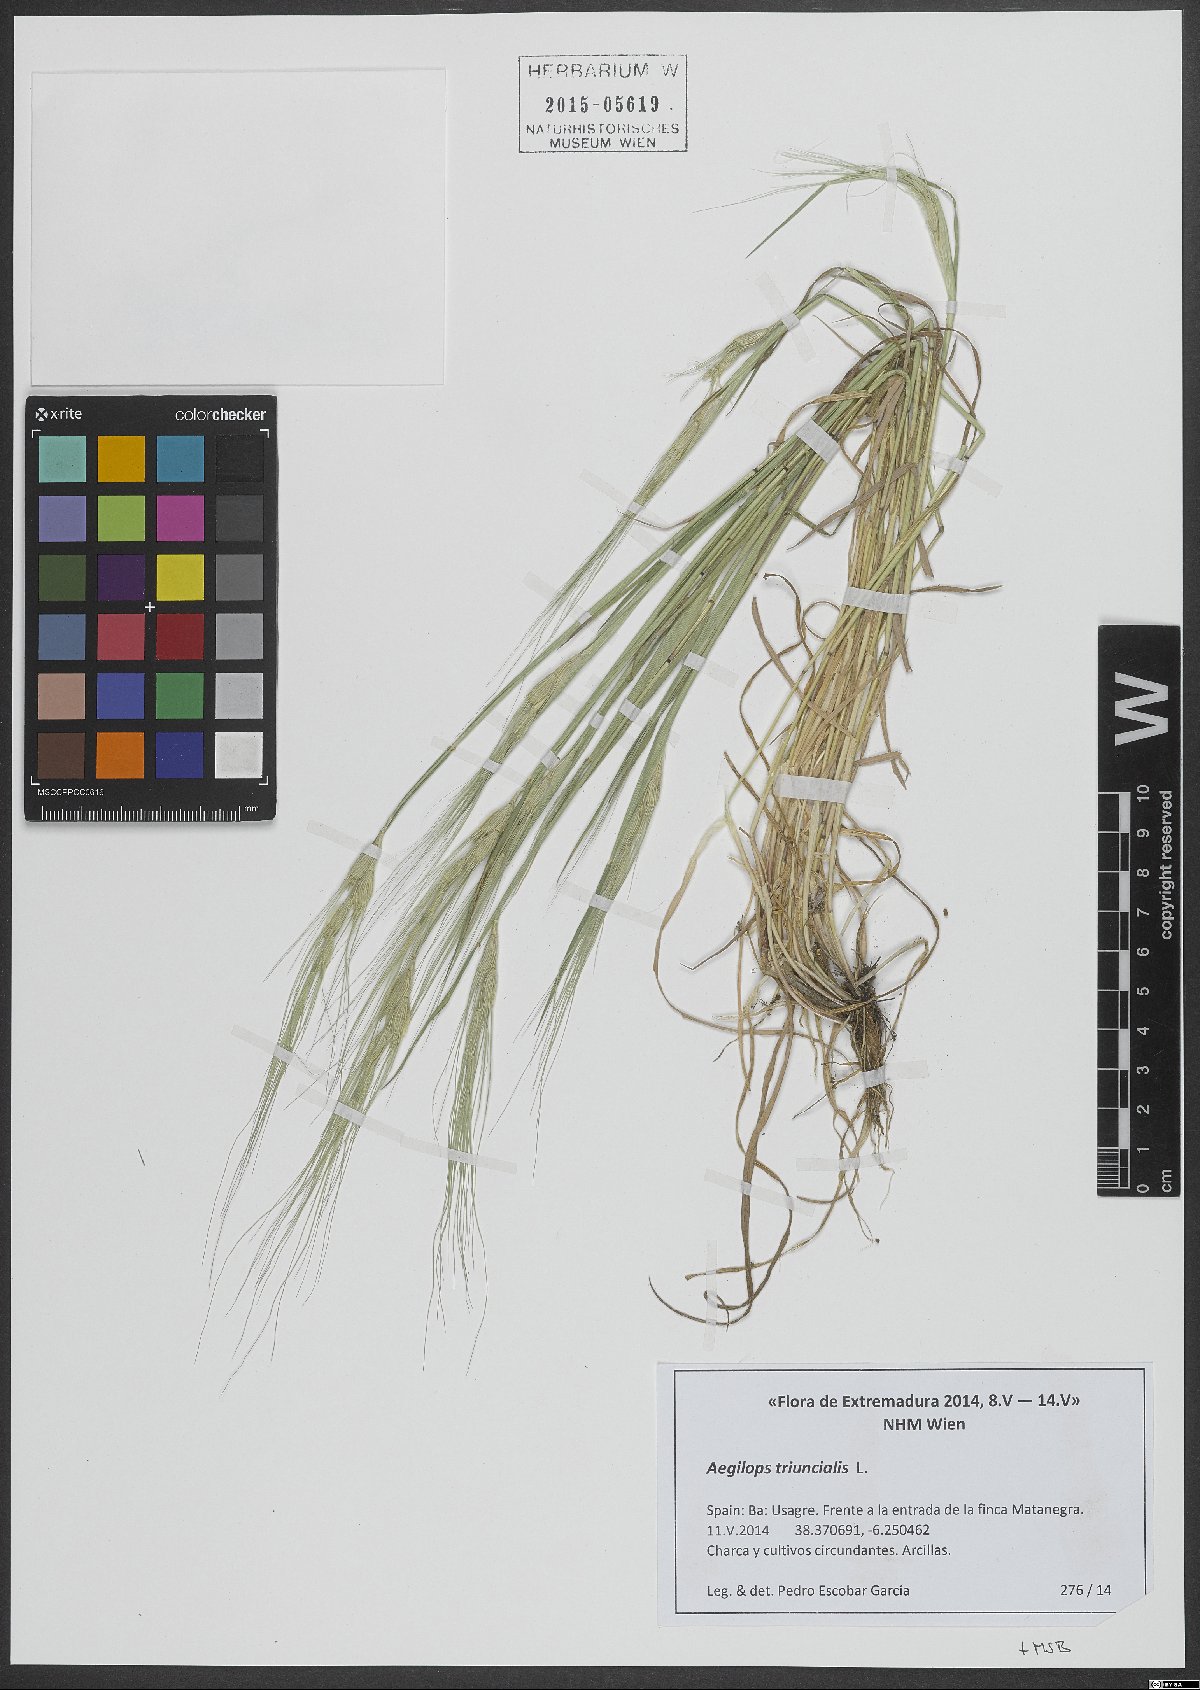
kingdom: Plantae
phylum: Tracheophyta
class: Liliopsida
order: Poales
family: Poaceae
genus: Aegilops
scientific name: Aegilops triuncialis
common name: Barb goat grass
